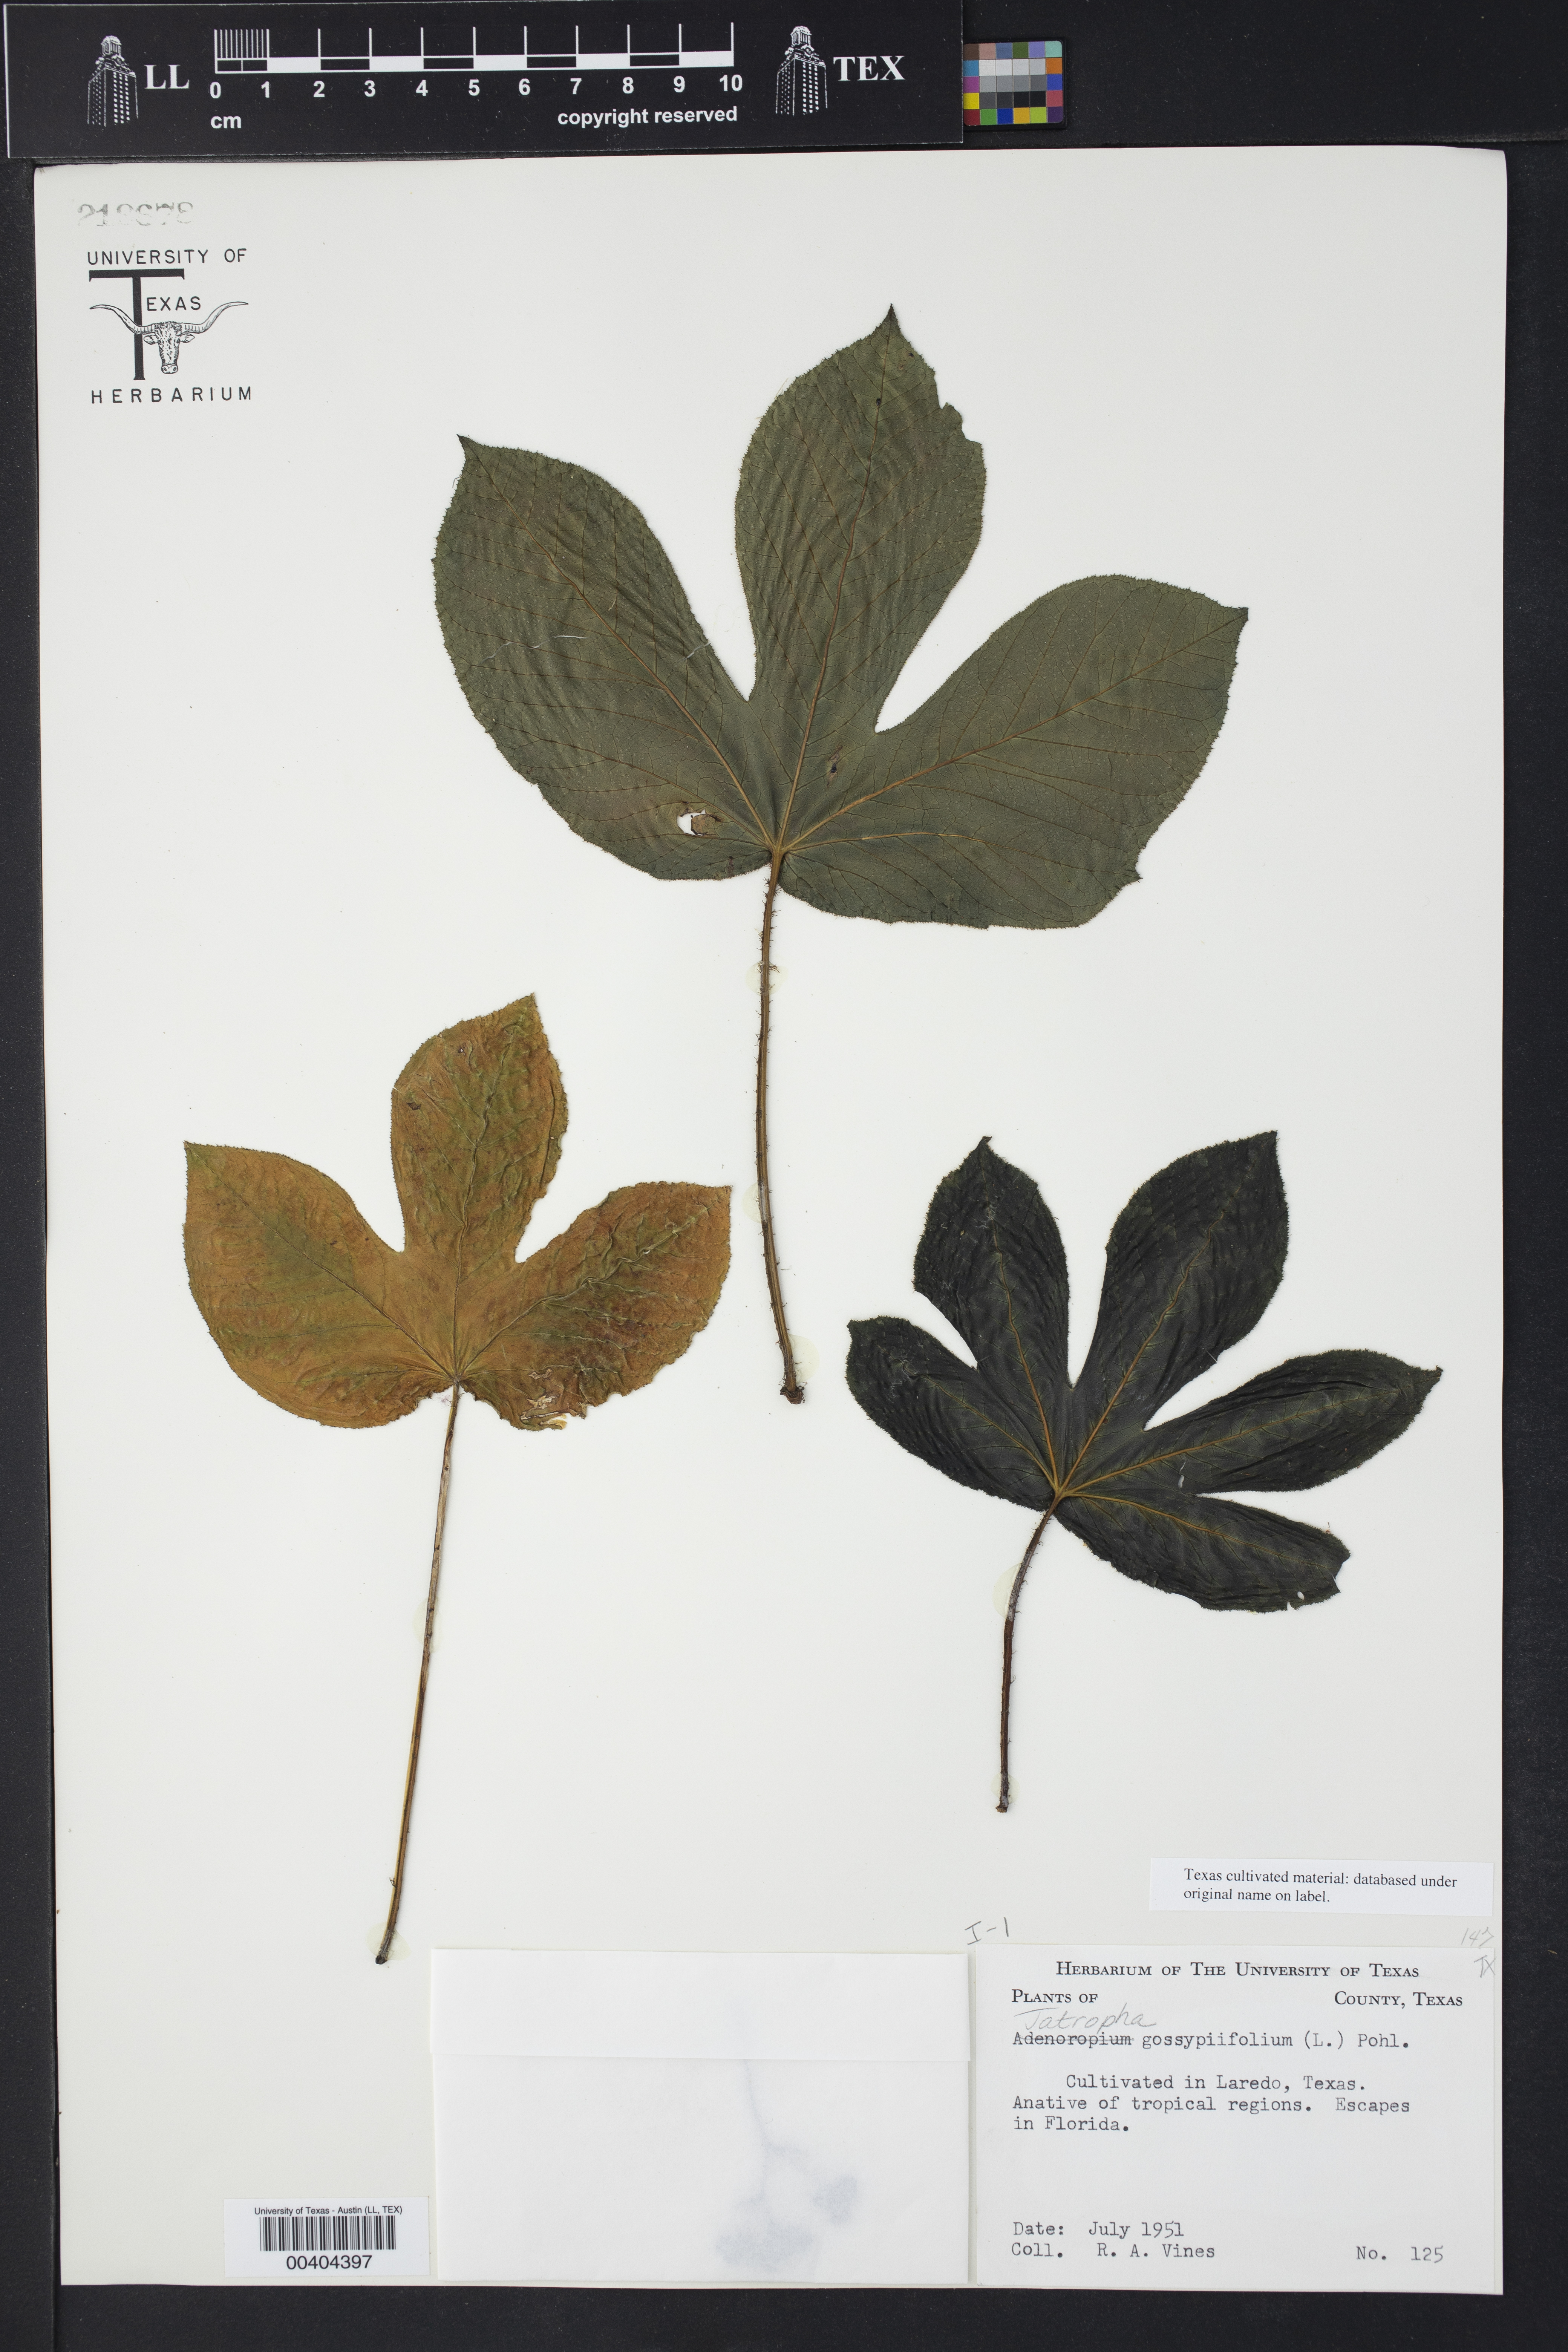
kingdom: Plantae
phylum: Tracheophyta
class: Magnoliopsida
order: Malpighiales
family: Euphorbiaceae
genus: Jatropha
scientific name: Jatropha gossypiifolia
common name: Bellyache bush
